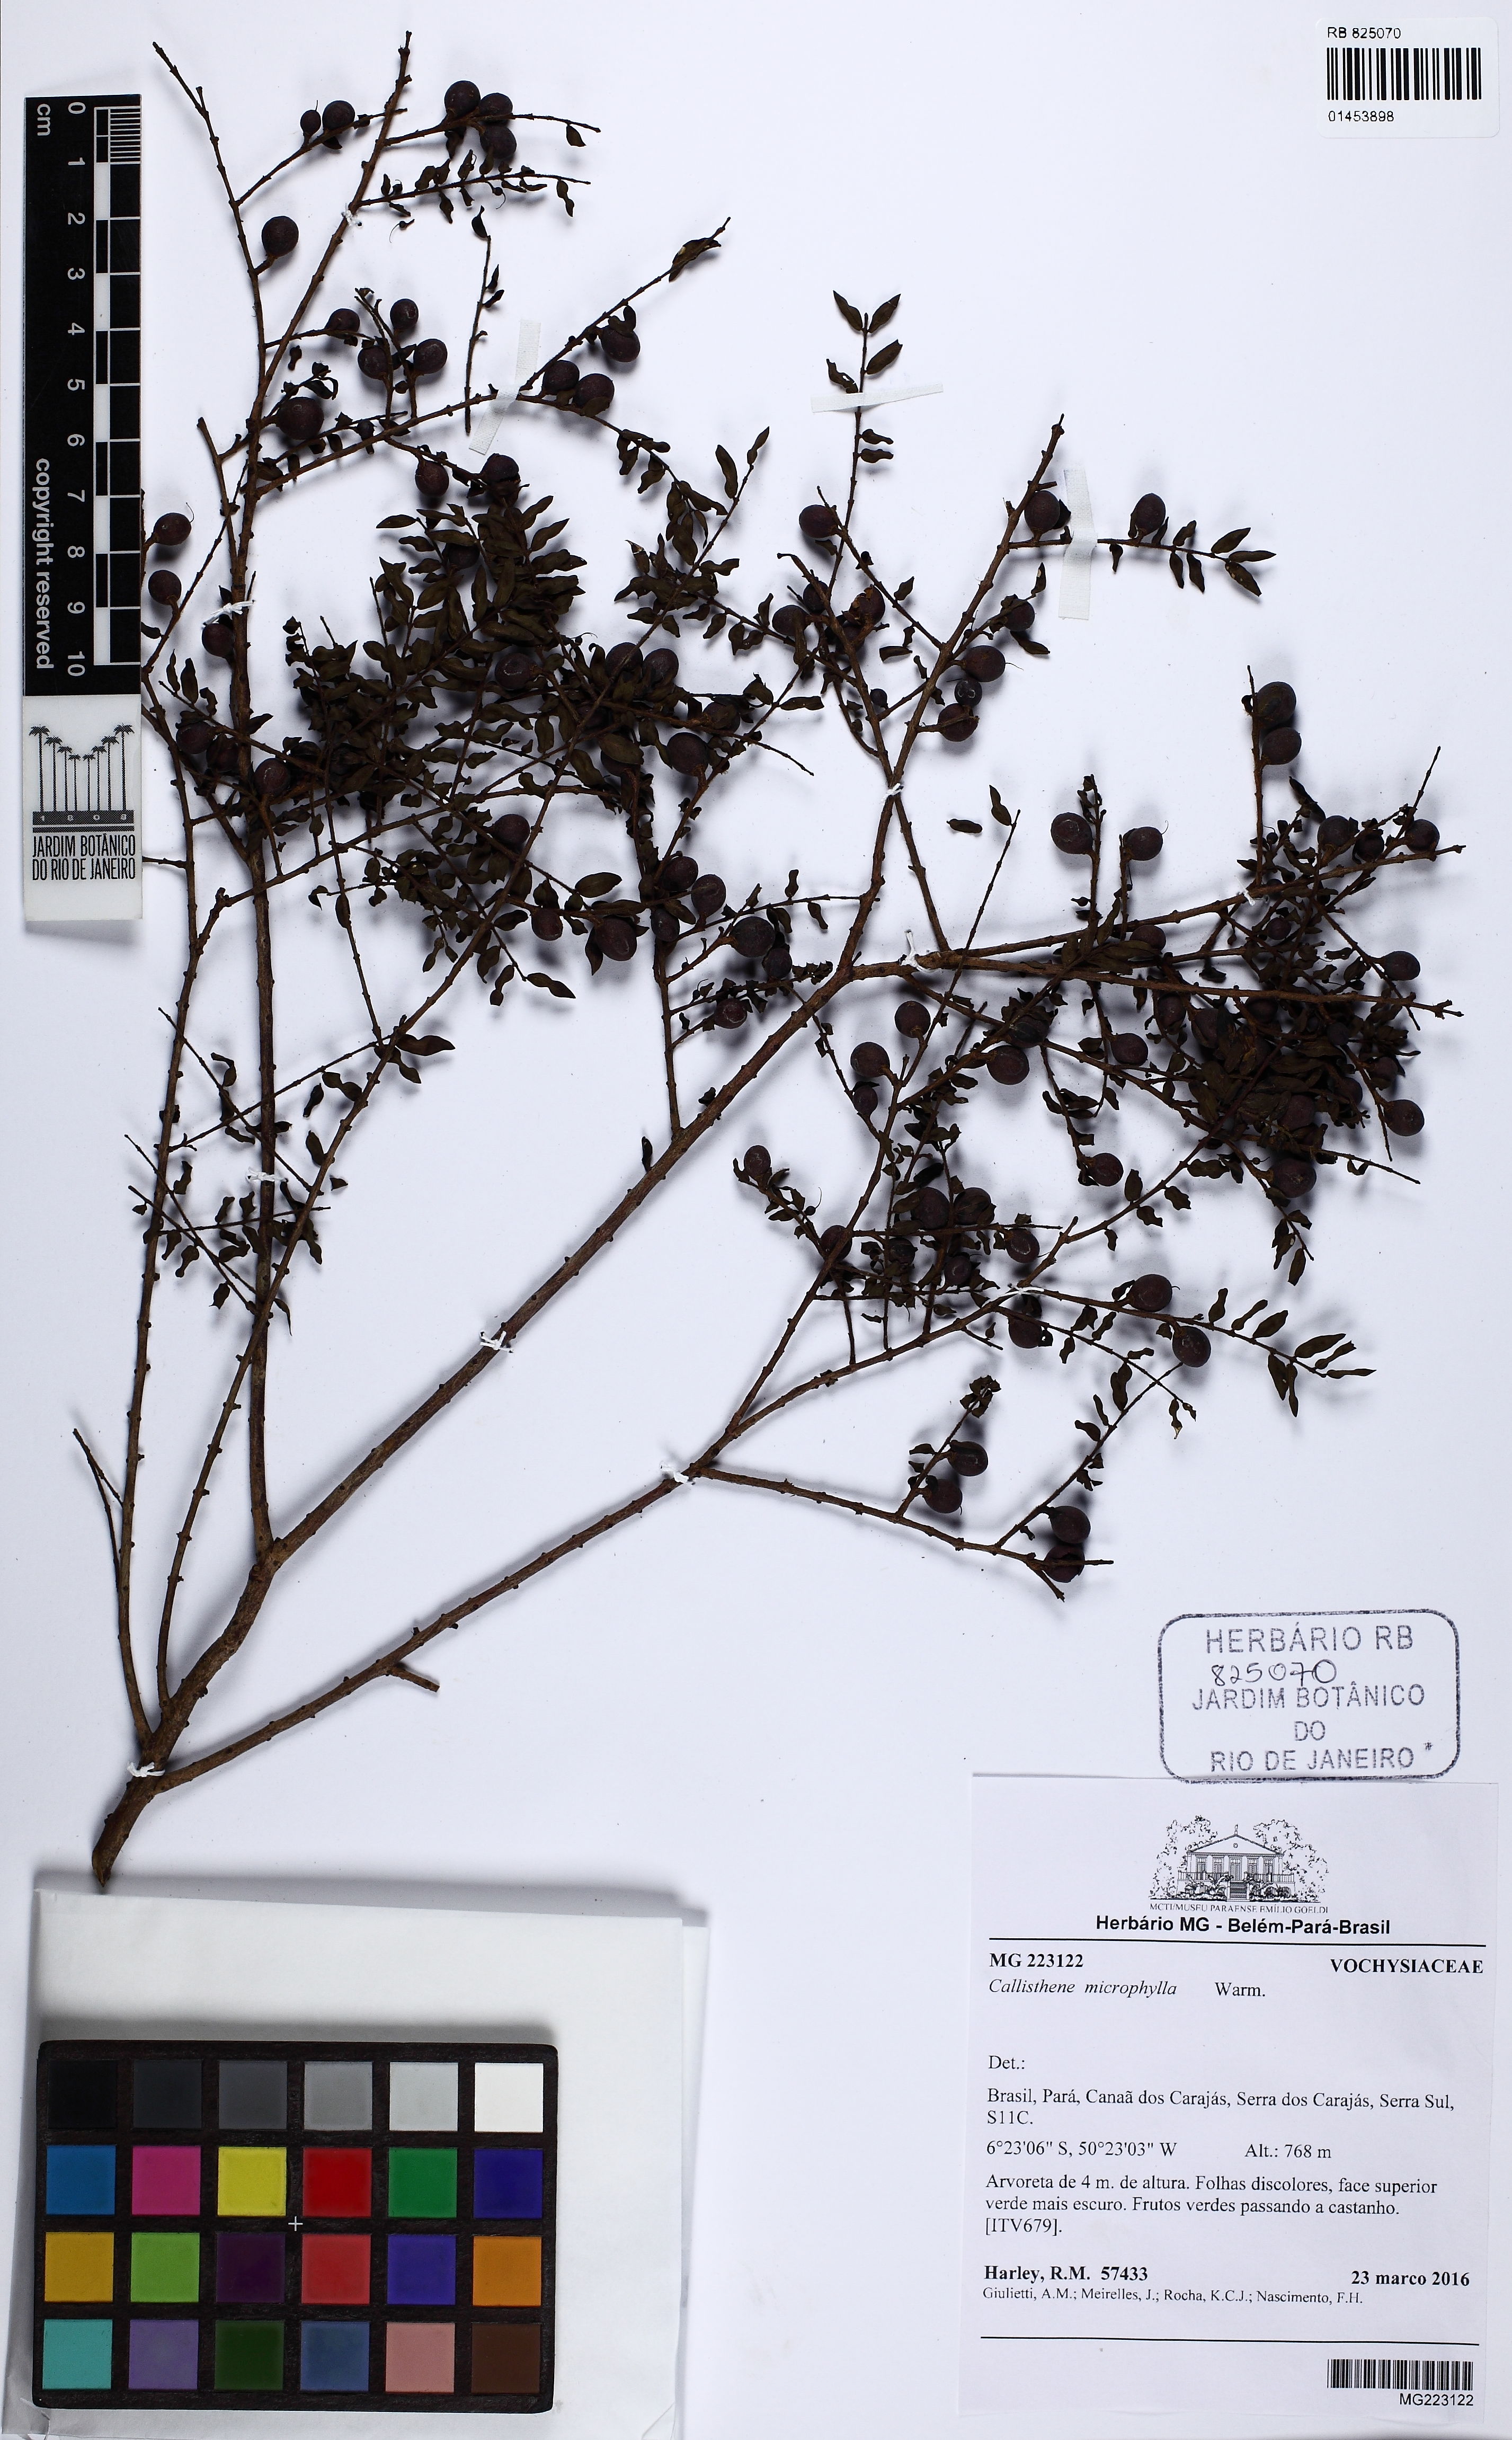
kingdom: Plantae
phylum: Tracheophyta
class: Magnoliopsida
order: Myrtales
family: Vochysiaceae
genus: Callisthene
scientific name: Callisthene microphylla
